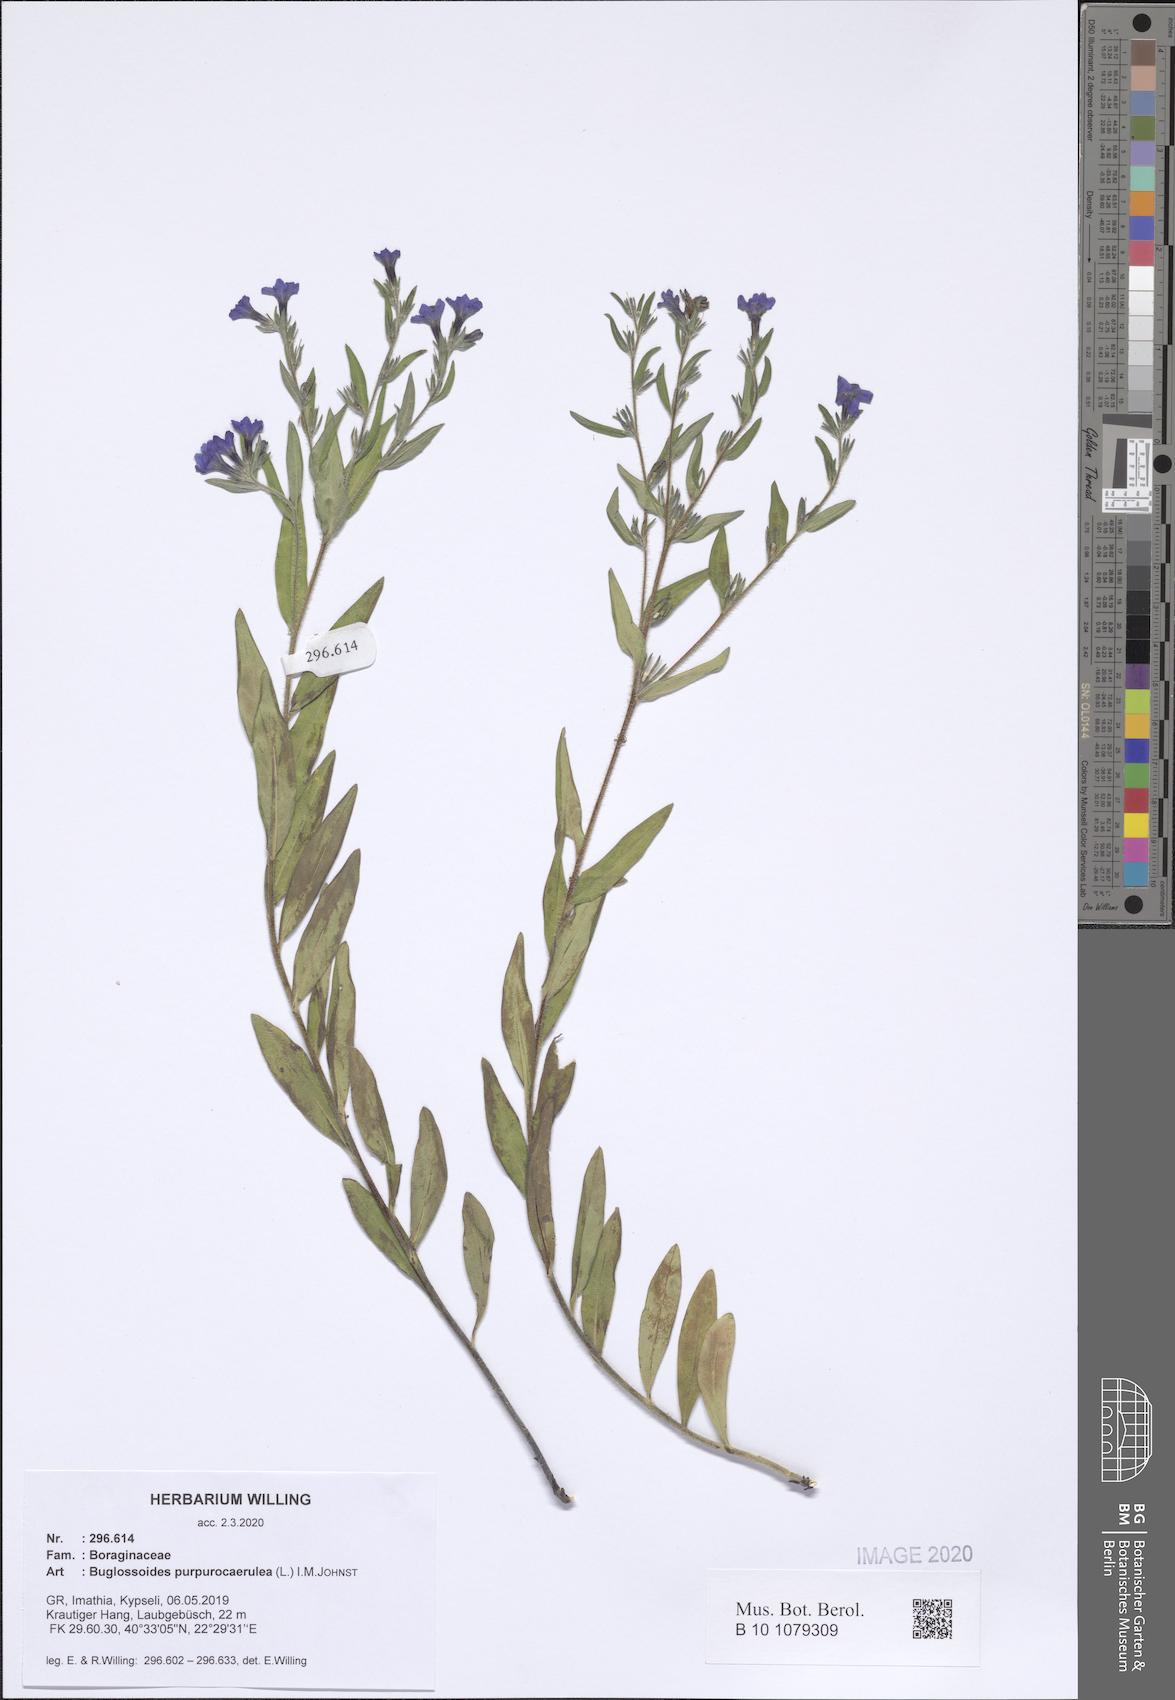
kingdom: Plantae
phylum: Tracheophyta
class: Magnoliopsida
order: Boraginales
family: Boraginaceae
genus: Aegonychon
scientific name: Aegonychon purpurocaeruleum
